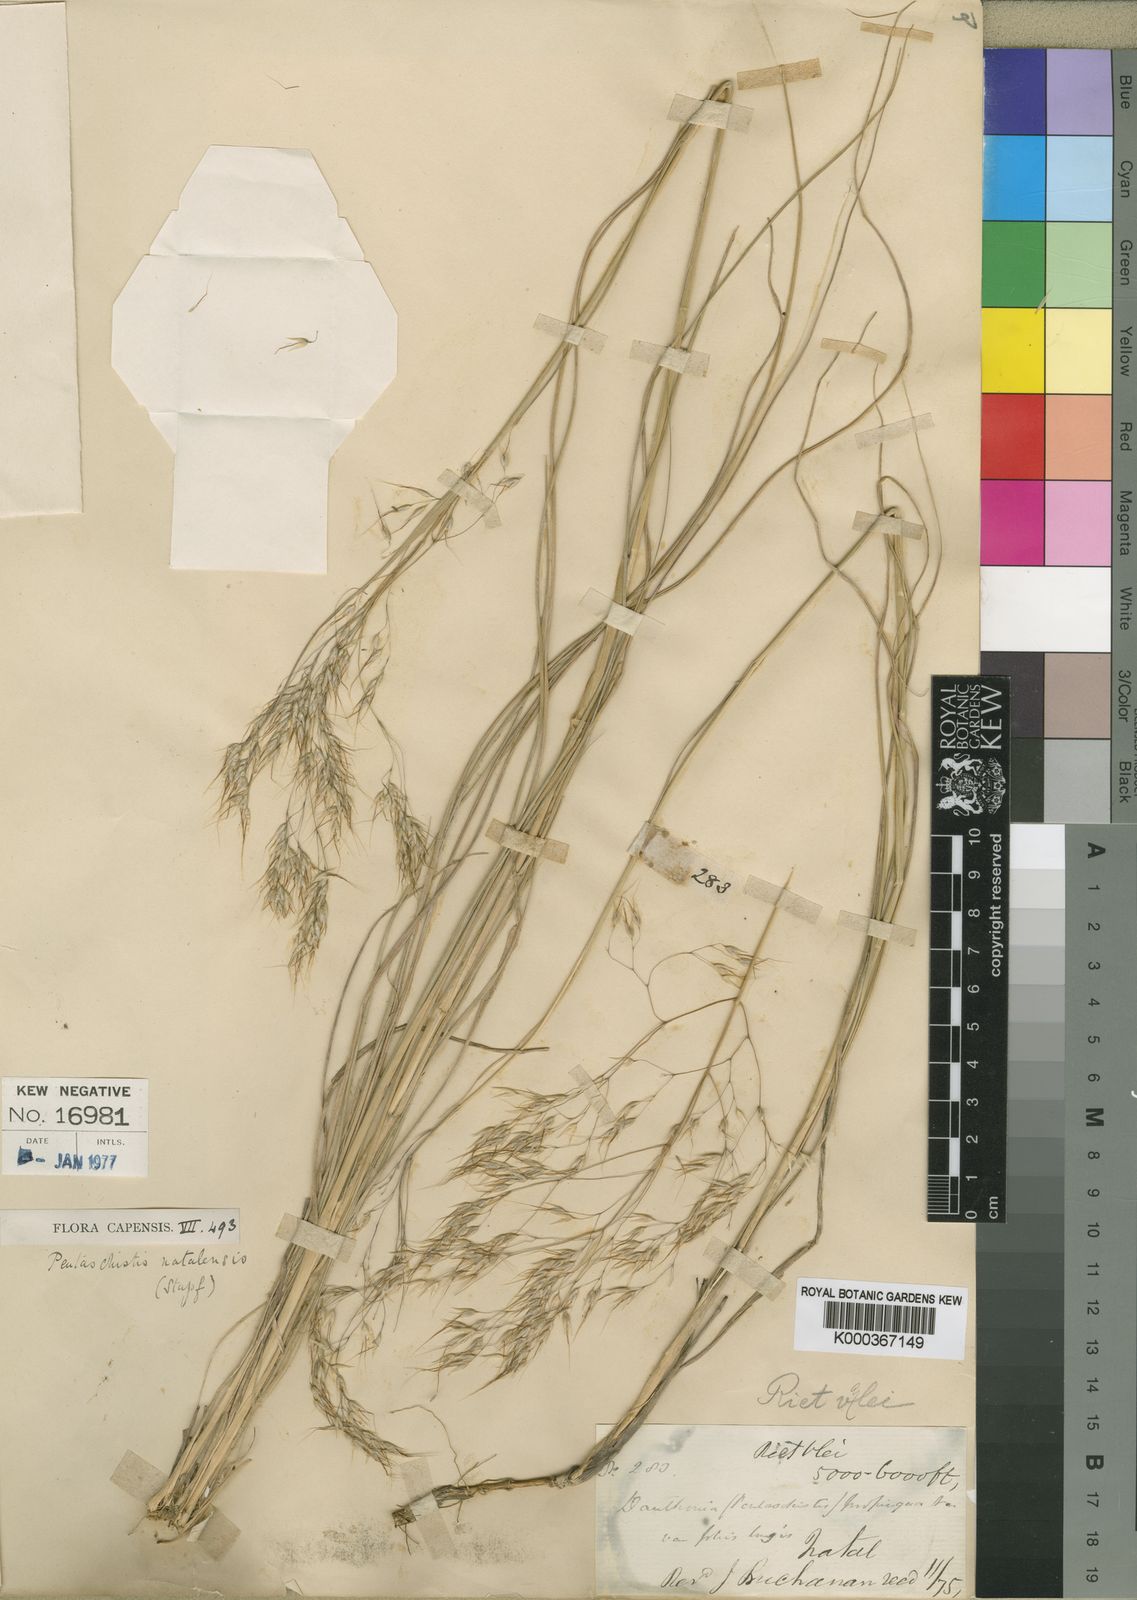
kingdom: Plantae
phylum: Tracheophyta
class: Liliopsida
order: Poales
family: Poaceae
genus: Pentameris
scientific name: Pentameris natalensis
